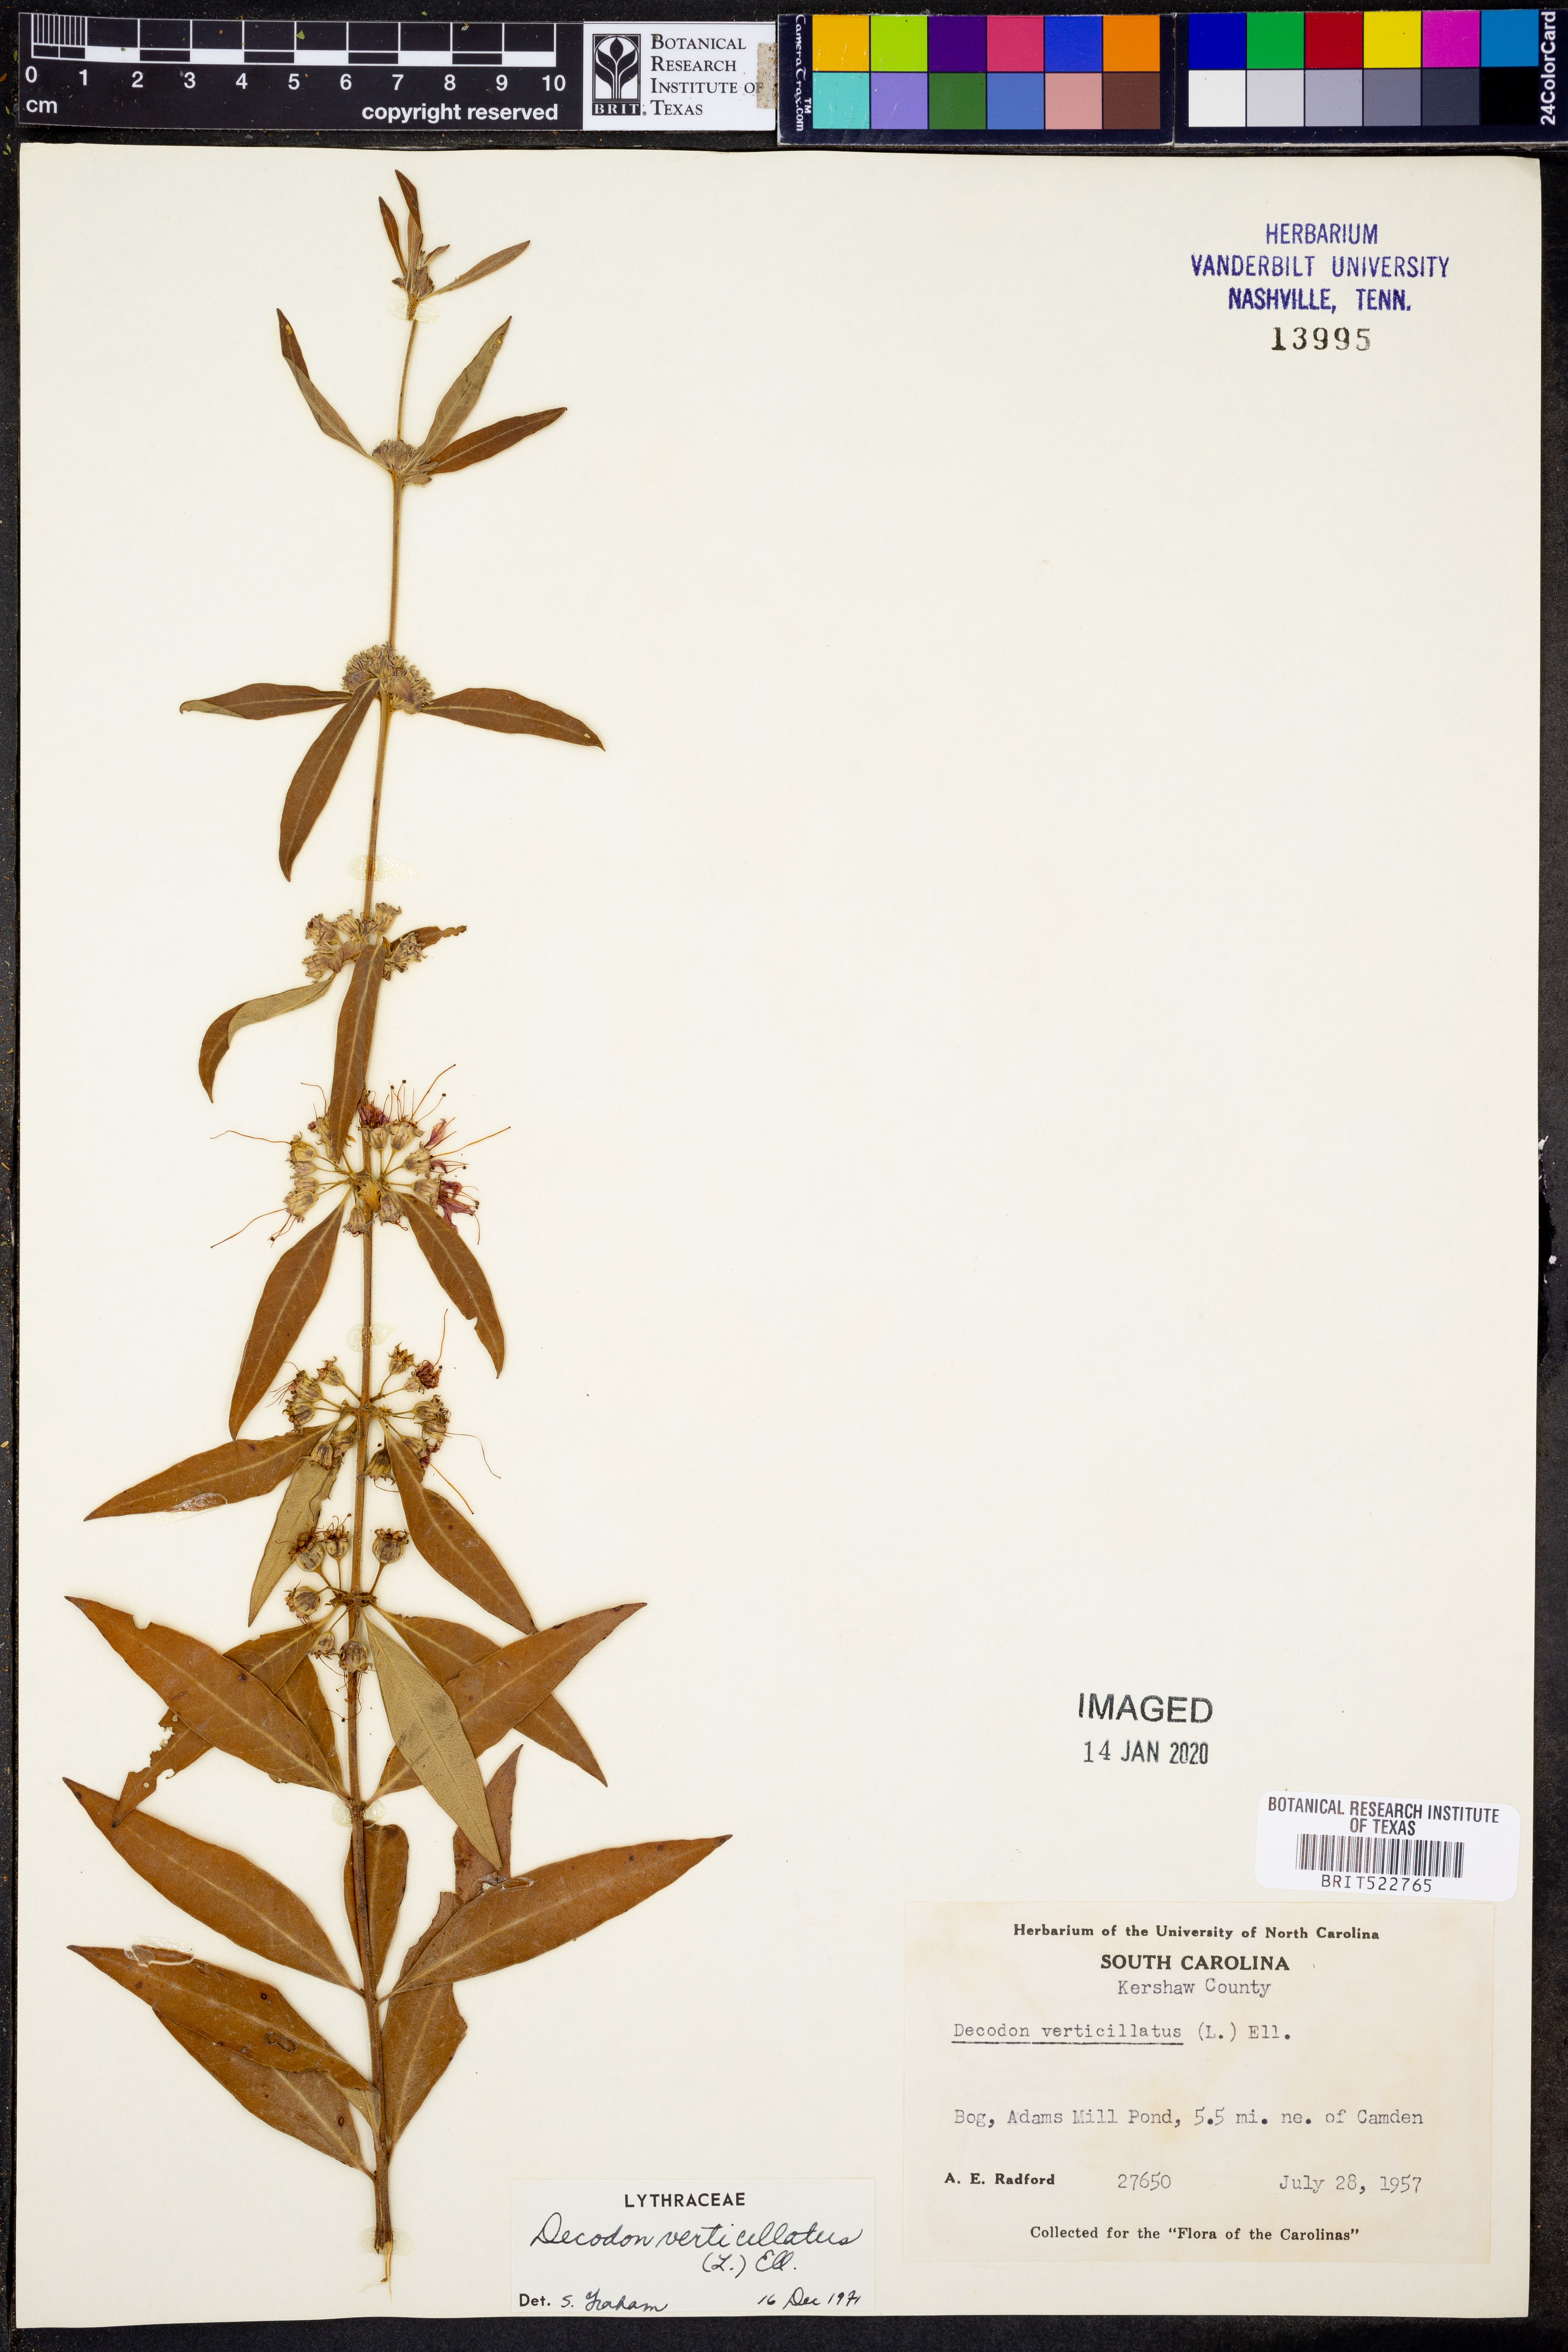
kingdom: Plantae
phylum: Tracheophyta
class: Magnoliopsida
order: Myrtales
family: Lythraceae
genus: Decodon
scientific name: Decodon verticillatus
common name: Hairy swamp loosestrife
